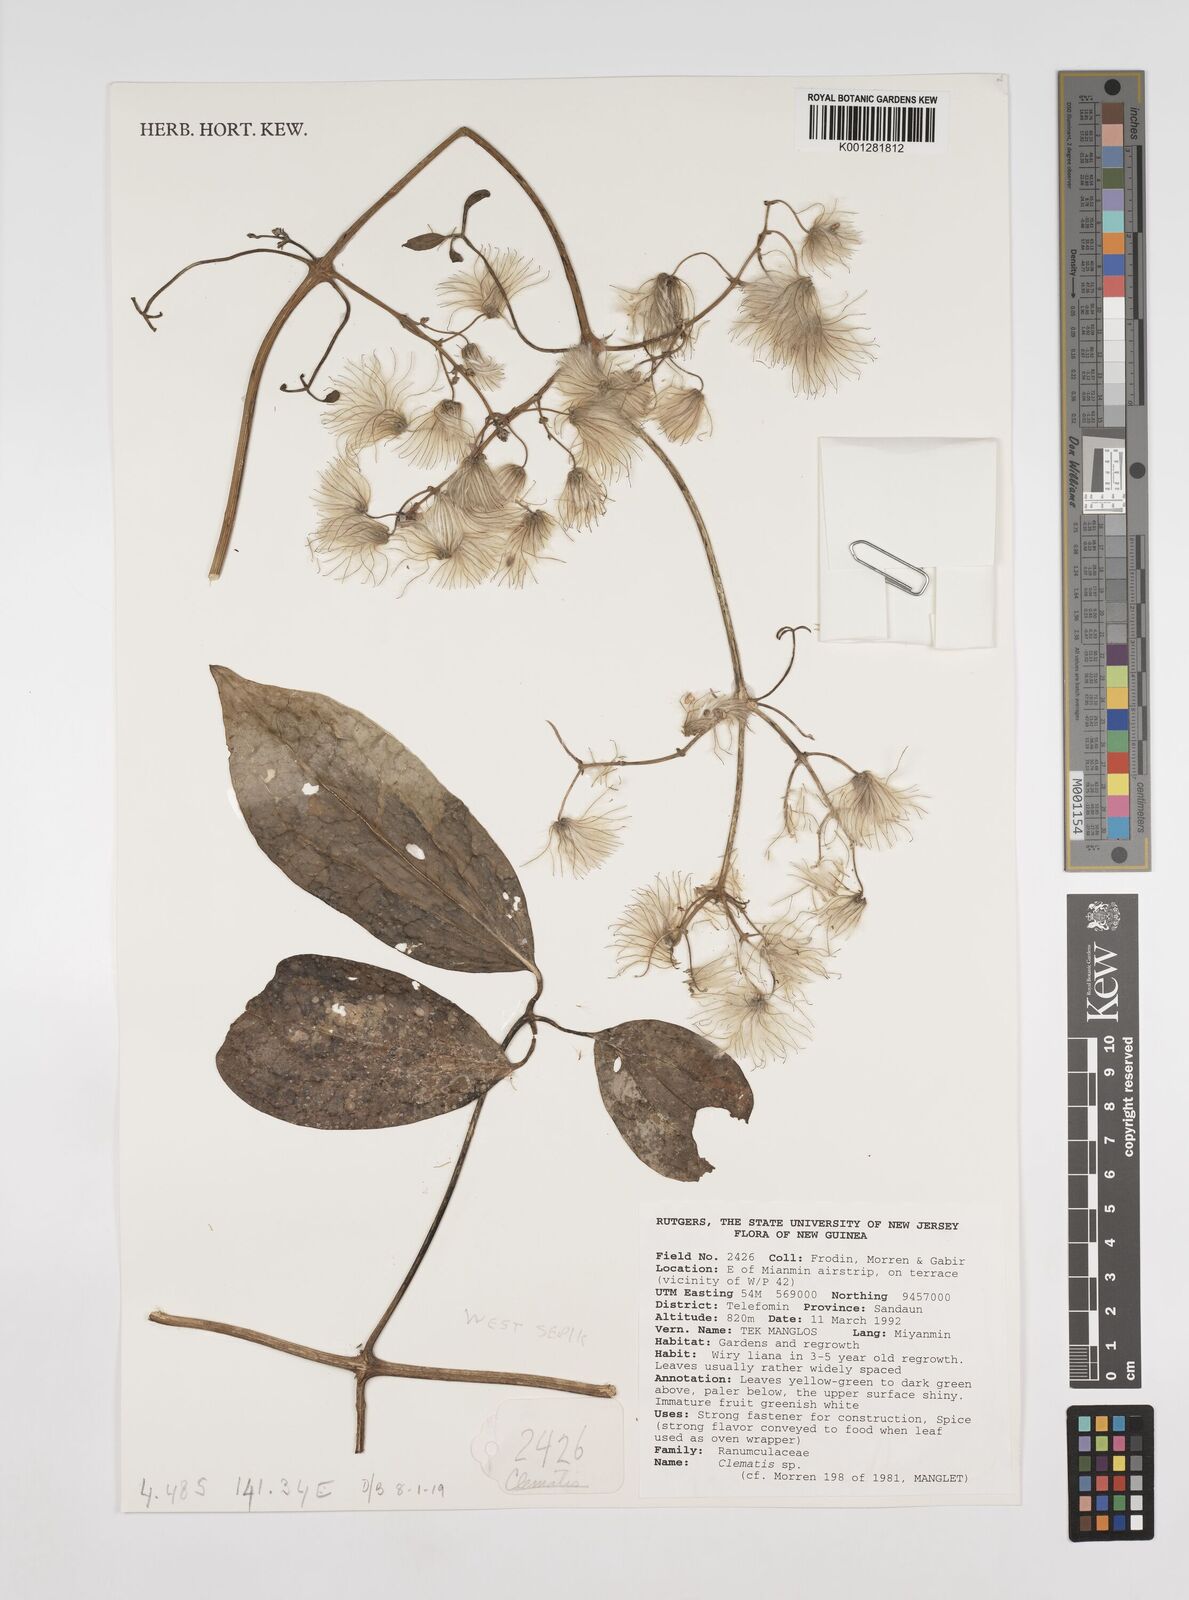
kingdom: Plantae
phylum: Tracheophyta
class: Magnoliopsida
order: Ranunculales
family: Ranunculaceae
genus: Clematis
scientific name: Clematis
